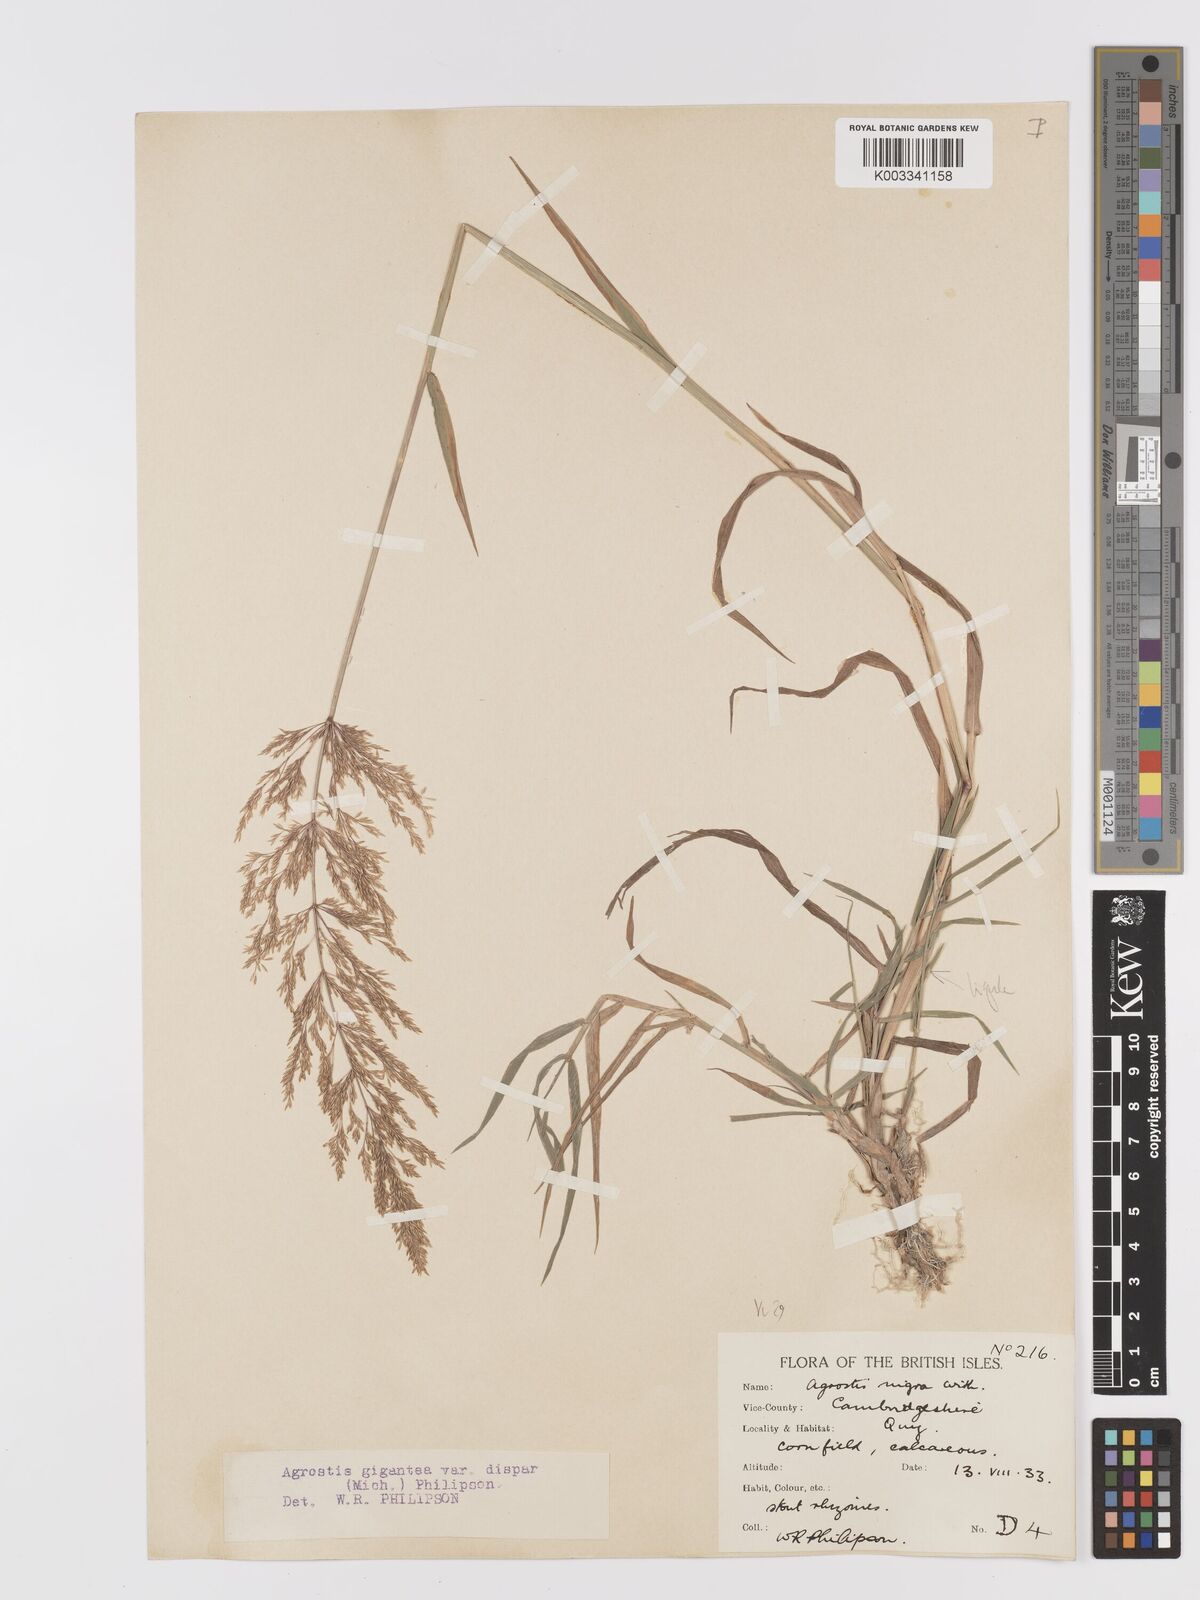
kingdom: Plantae
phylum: Tracheophyta
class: Liliopsida
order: Poales
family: Poaceae
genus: Agrostis
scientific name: Agrostis gigantea
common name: Black bent
